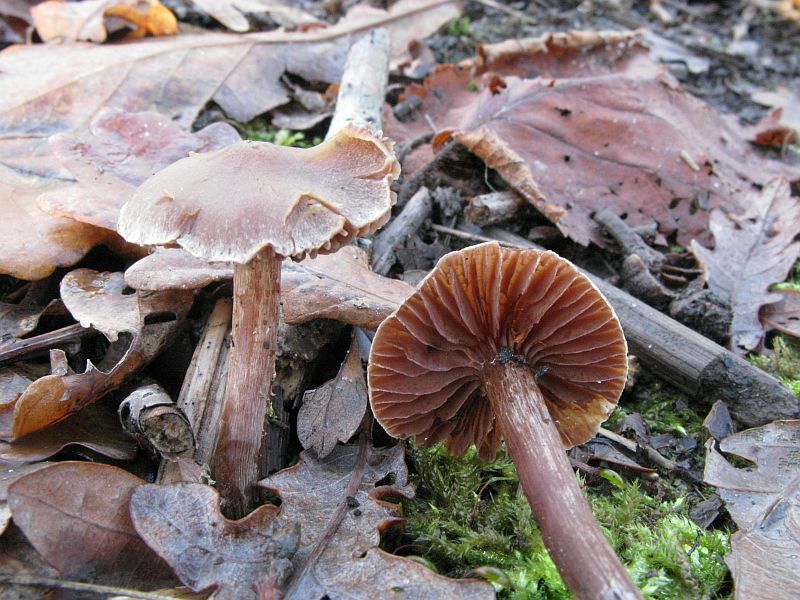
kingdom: Fungi
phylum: Basidiomycota
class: Agaricomycetes
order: Agaricales
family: Cortinariaceae
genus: Cortinarius
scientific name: Cortinarius
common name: pelargonie-slørhat
